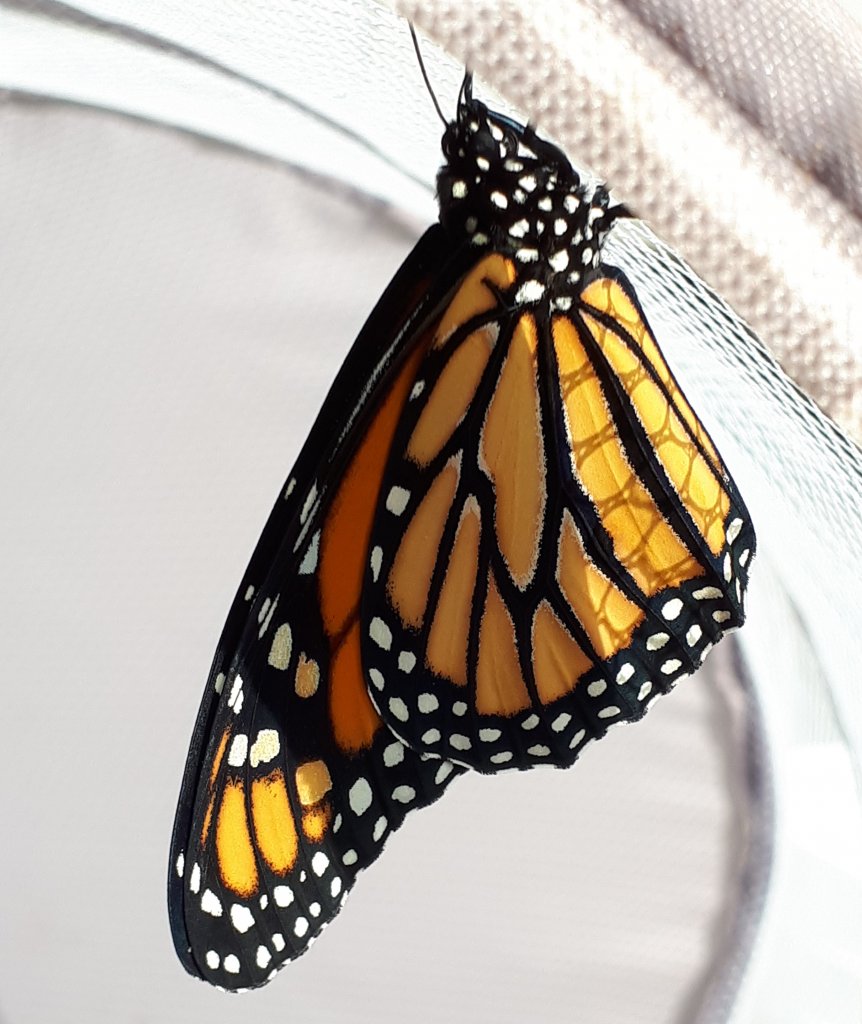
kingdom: Animalia
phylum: Arthropoda
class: Insecta
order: Lepidoptera
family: Nymphalidae
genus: Danaus
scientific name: Danaus plexippus
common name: Monarch
